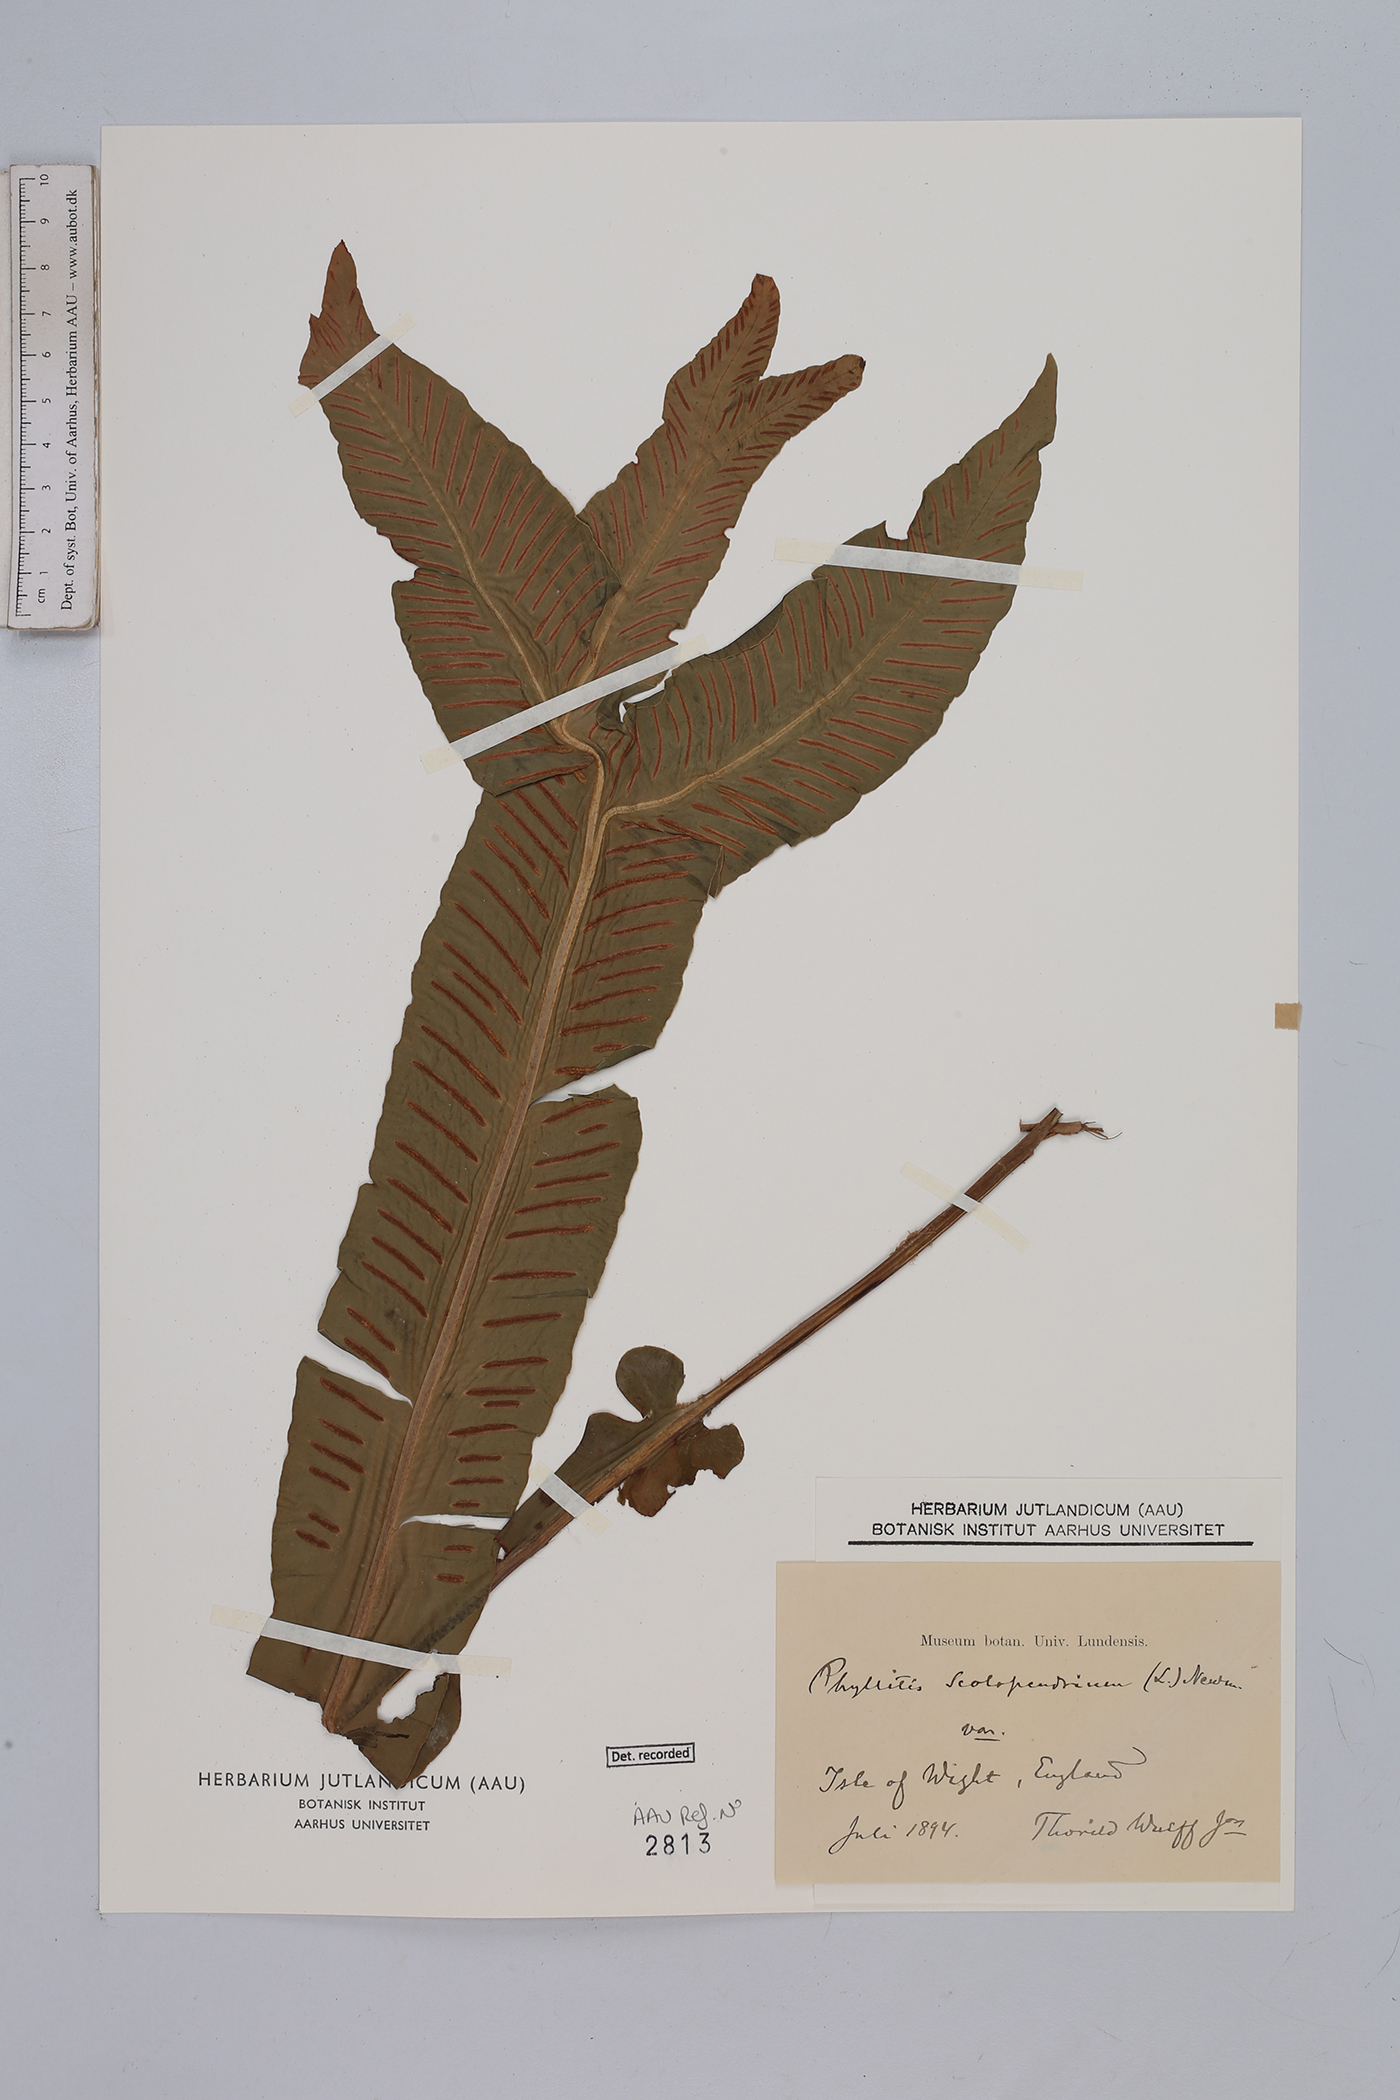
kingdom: Plantae
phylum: Tracheophyta
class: Polypodiopsida
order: Polypodiales
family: Aspleniaceae
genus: Asplenium
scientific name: Asplenium scolopendrium
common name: Hart's-tongue fern
